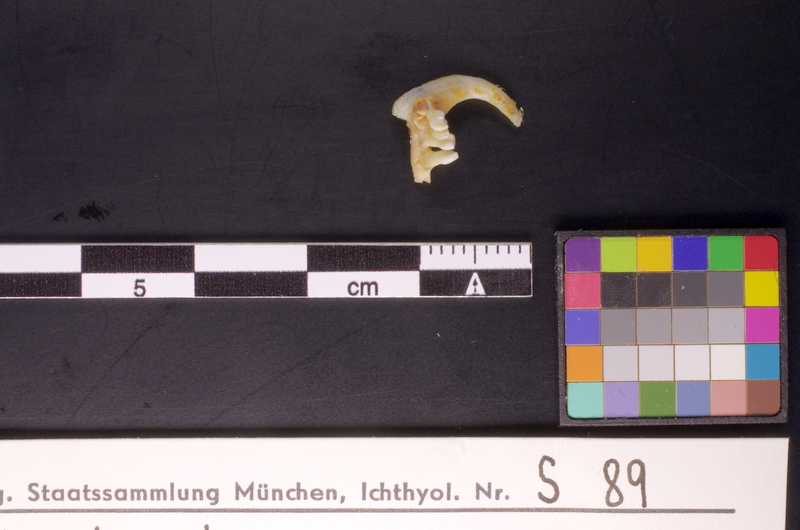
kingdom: Animalia
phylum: Chordata
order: Cypriniformes
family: Cyprinidae
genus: Vimba
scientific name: Vimba elongata
